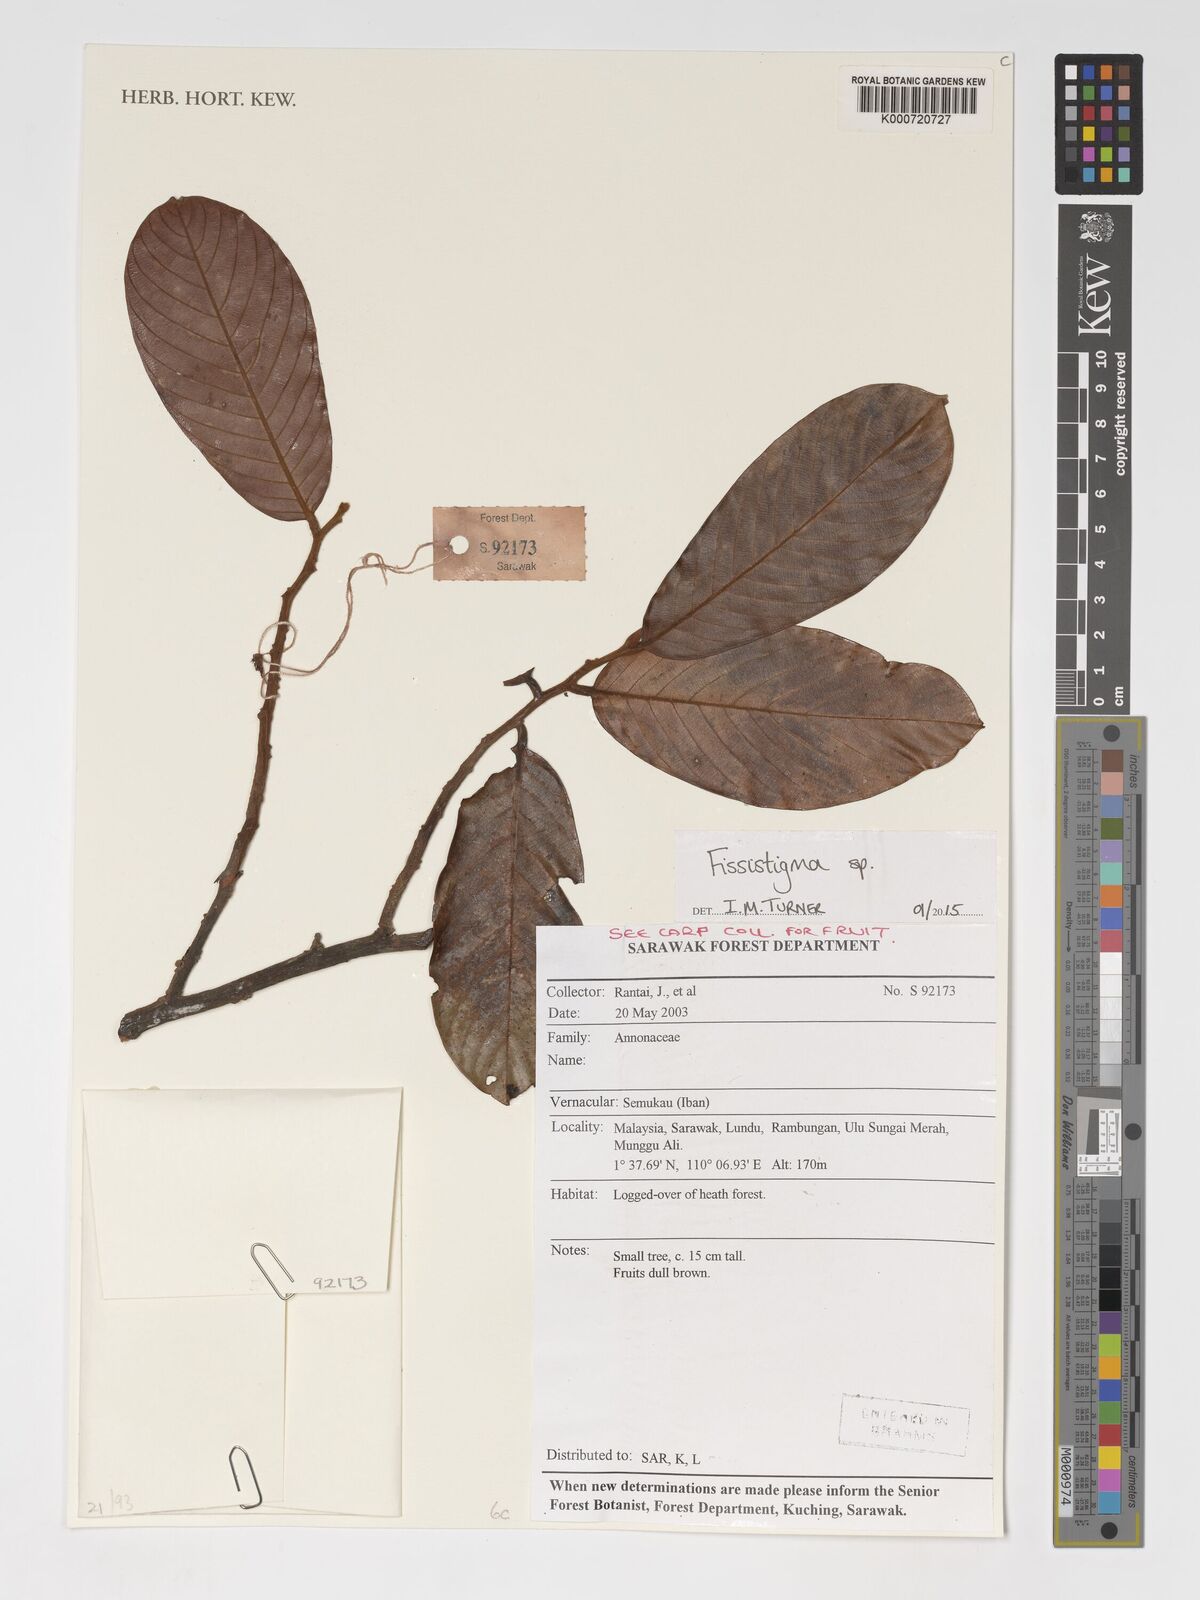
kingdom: Plantae
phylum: Tracheophyta
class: Magnoliopsida
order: Magnoliales
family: Annonaceae
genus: Fissistigma
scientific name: Fissistigma
